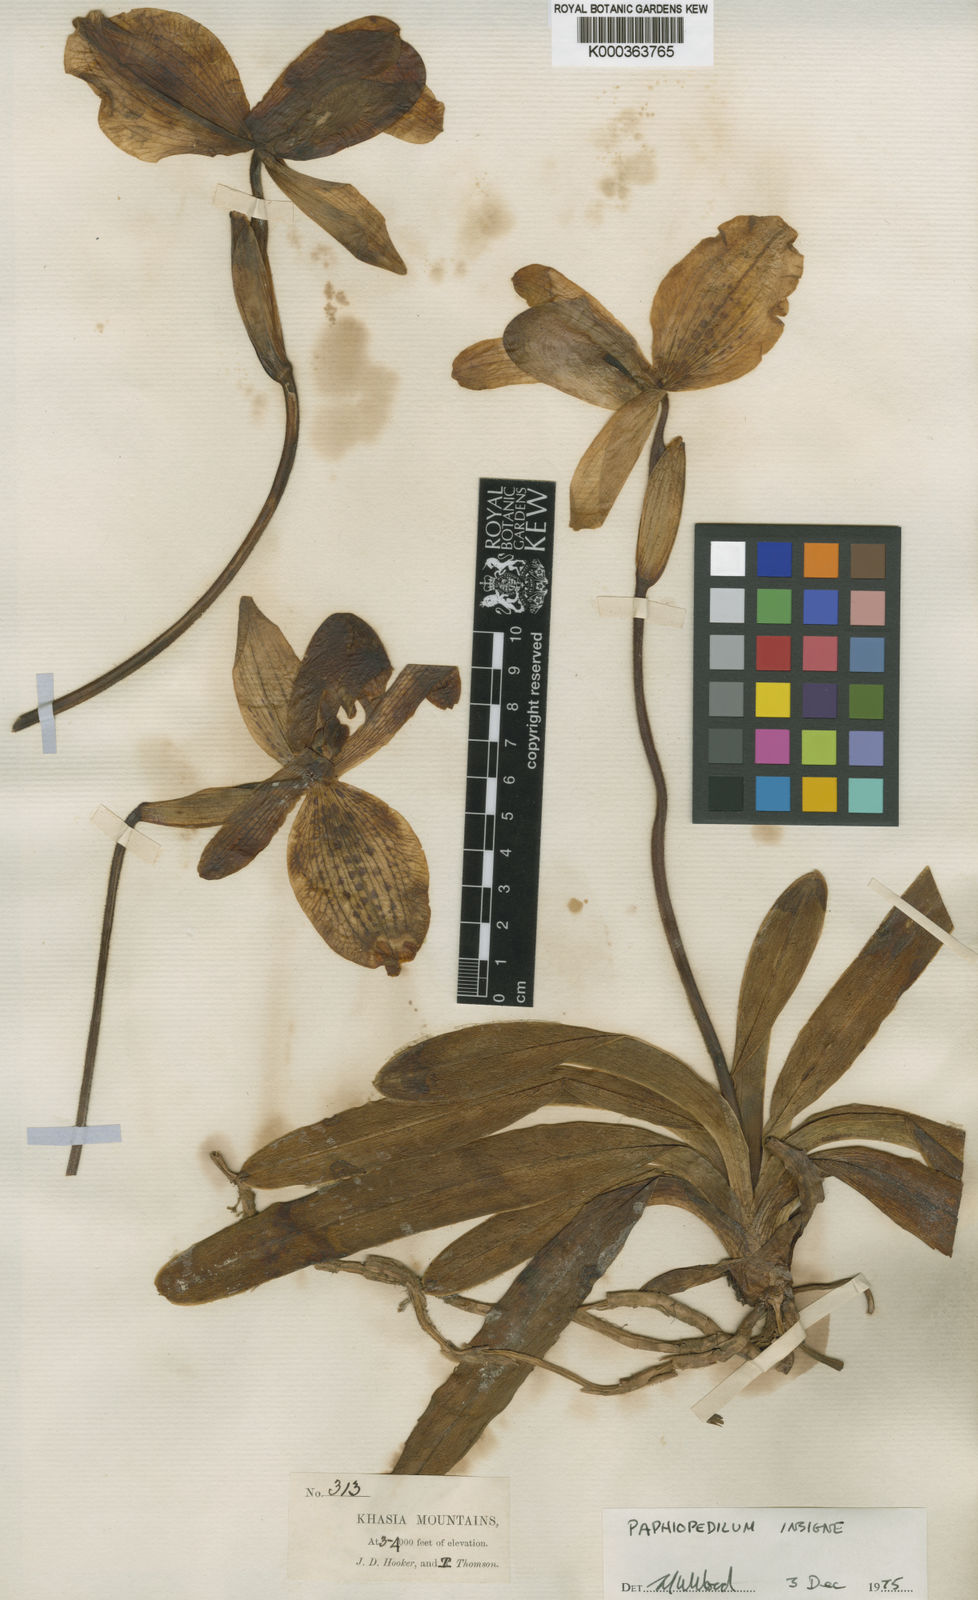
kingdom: Plantae
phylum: Tracheophyta
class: Liliopsida
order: Asparagales
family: Orchidaceae
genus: Paphiopedilum
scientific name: Paphiopedilum insigne
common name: Splendid paphiopedilum
